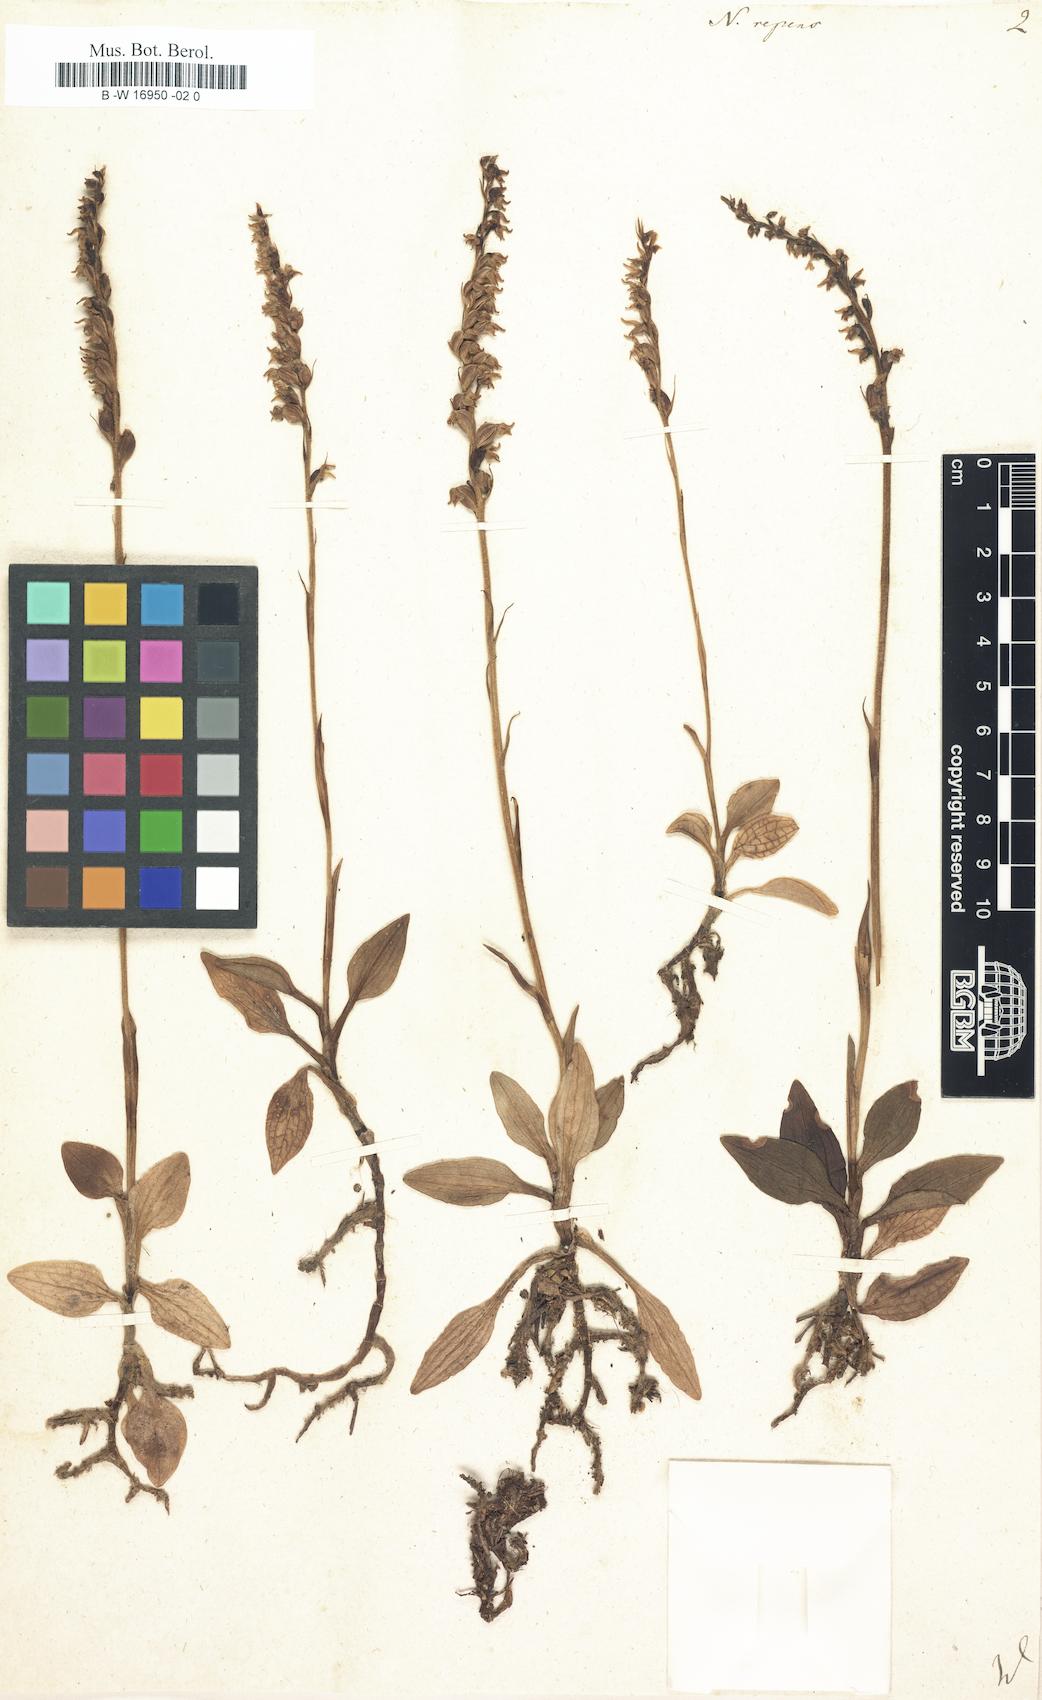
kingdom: Plantae
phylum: Tracheophyta
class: Liliopsida
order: Asparagales
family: Orchidaceae
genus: Goodyera
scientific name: Goodyera
